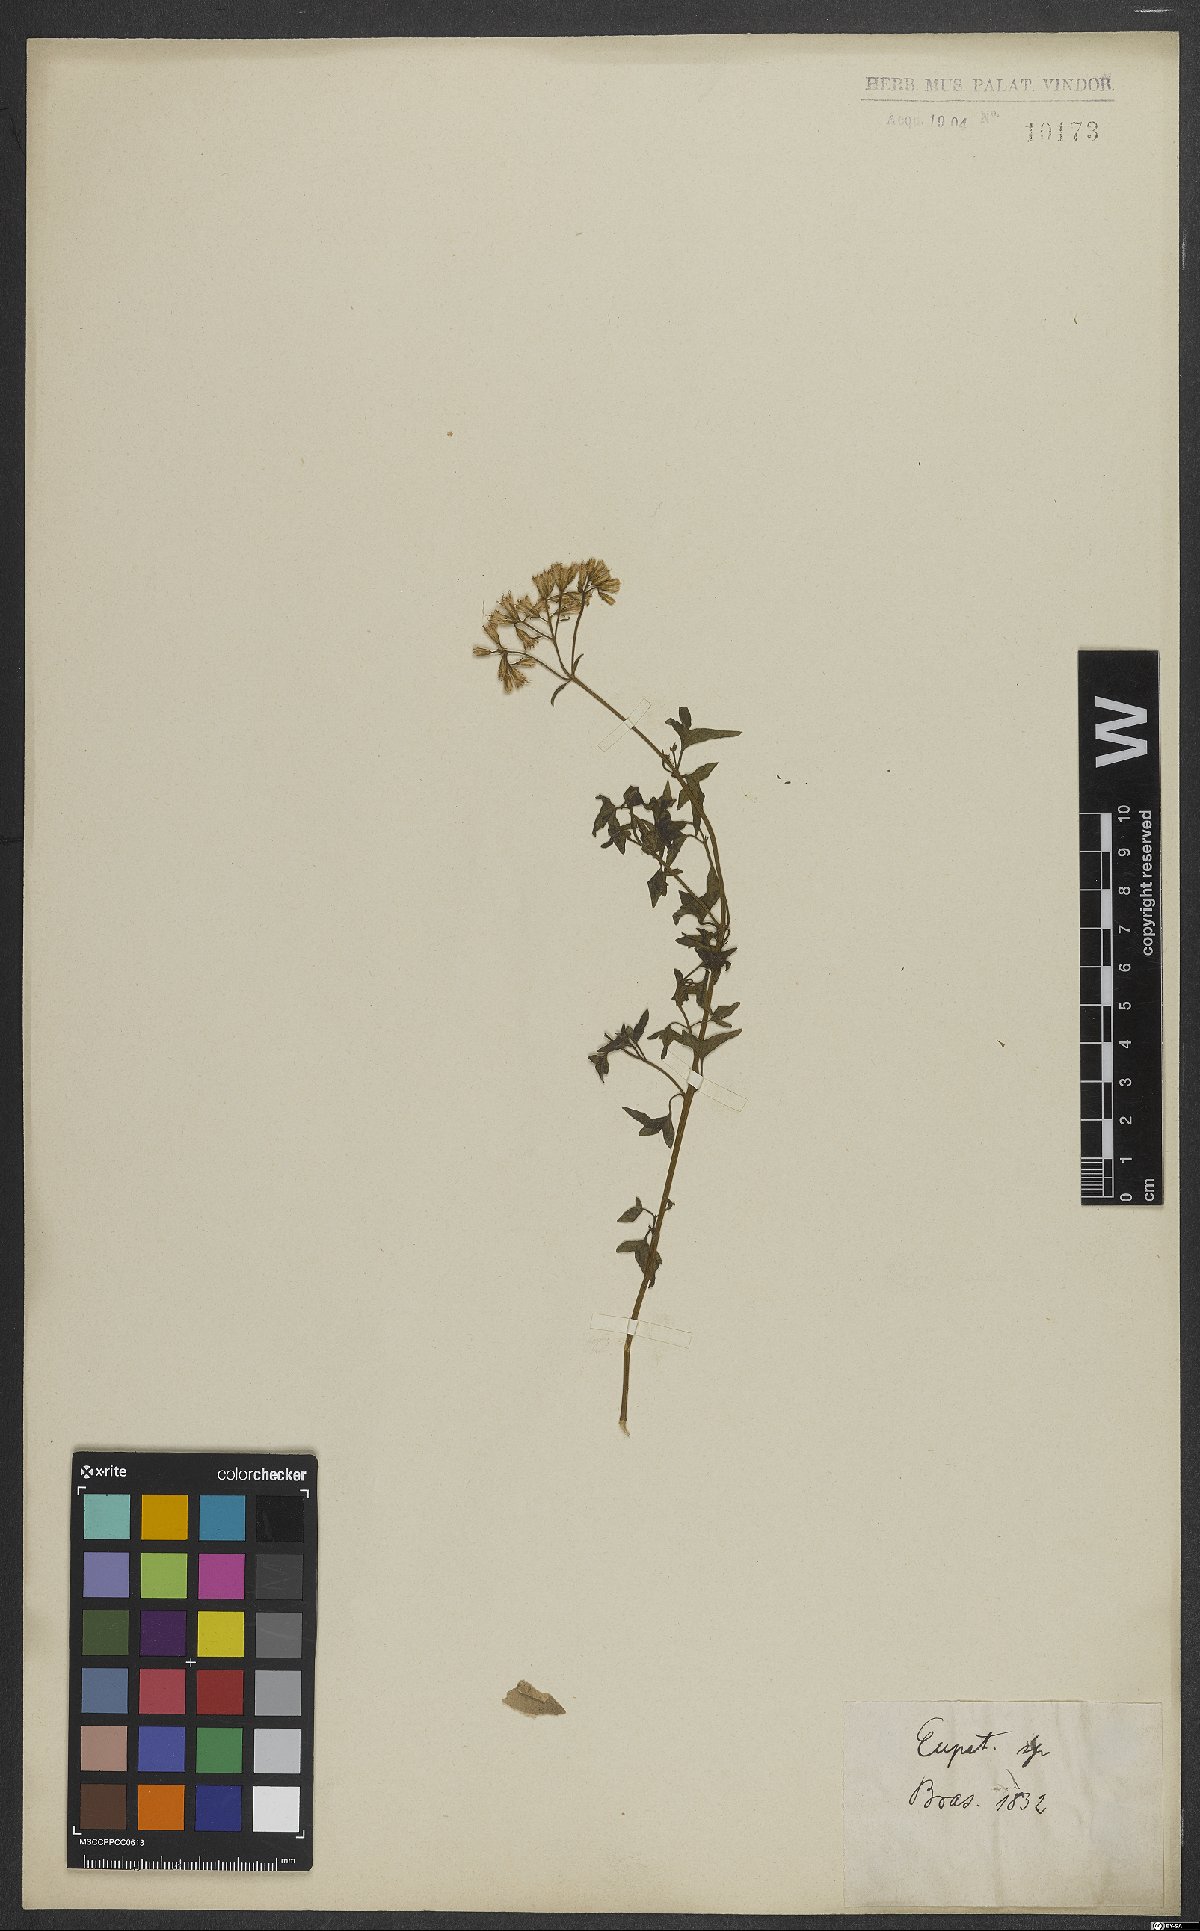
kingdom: Plantae
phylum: Tracheophyta
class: Magnoliopsida
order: Asterales
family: Asteraceae
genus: Eupatorium
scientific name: Eupatorium
